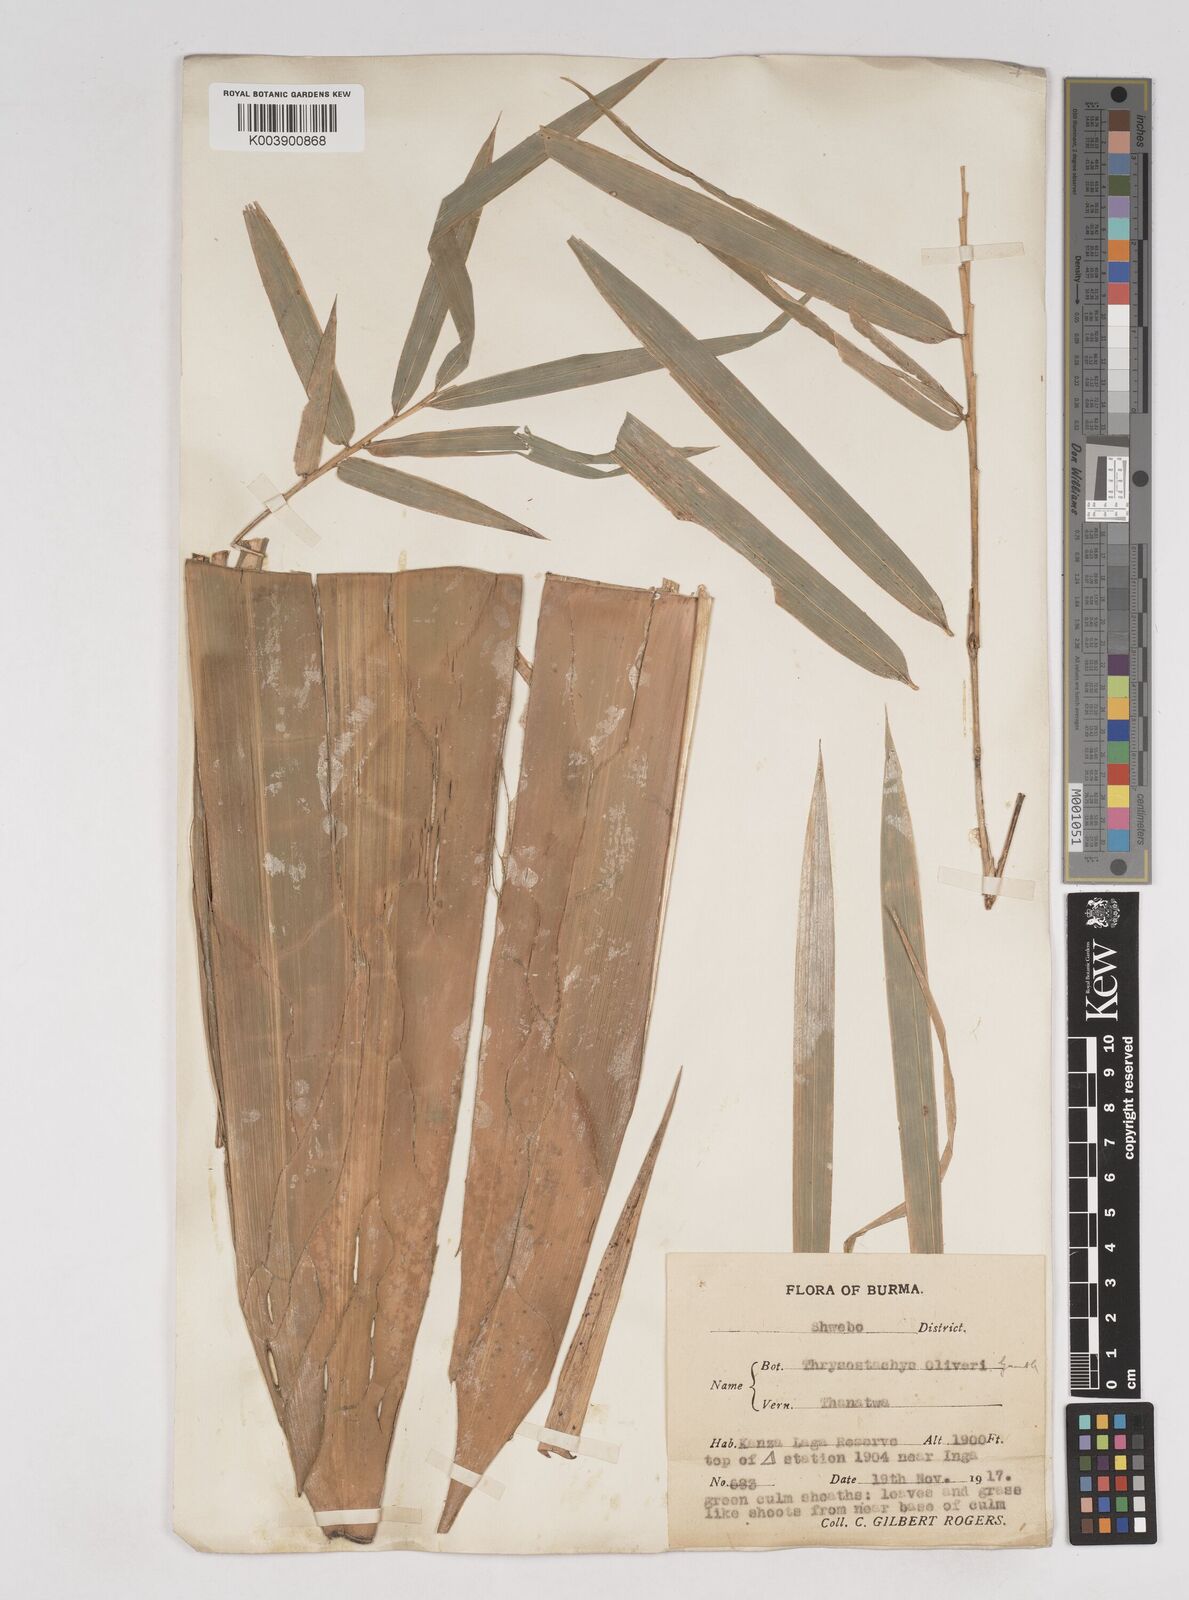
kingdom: Plantae
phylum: Tracheophyta
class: Liliopsida
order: Poales
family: Poaceae
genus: Thyrsostachys
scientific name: Thyrsostachys oliveri
